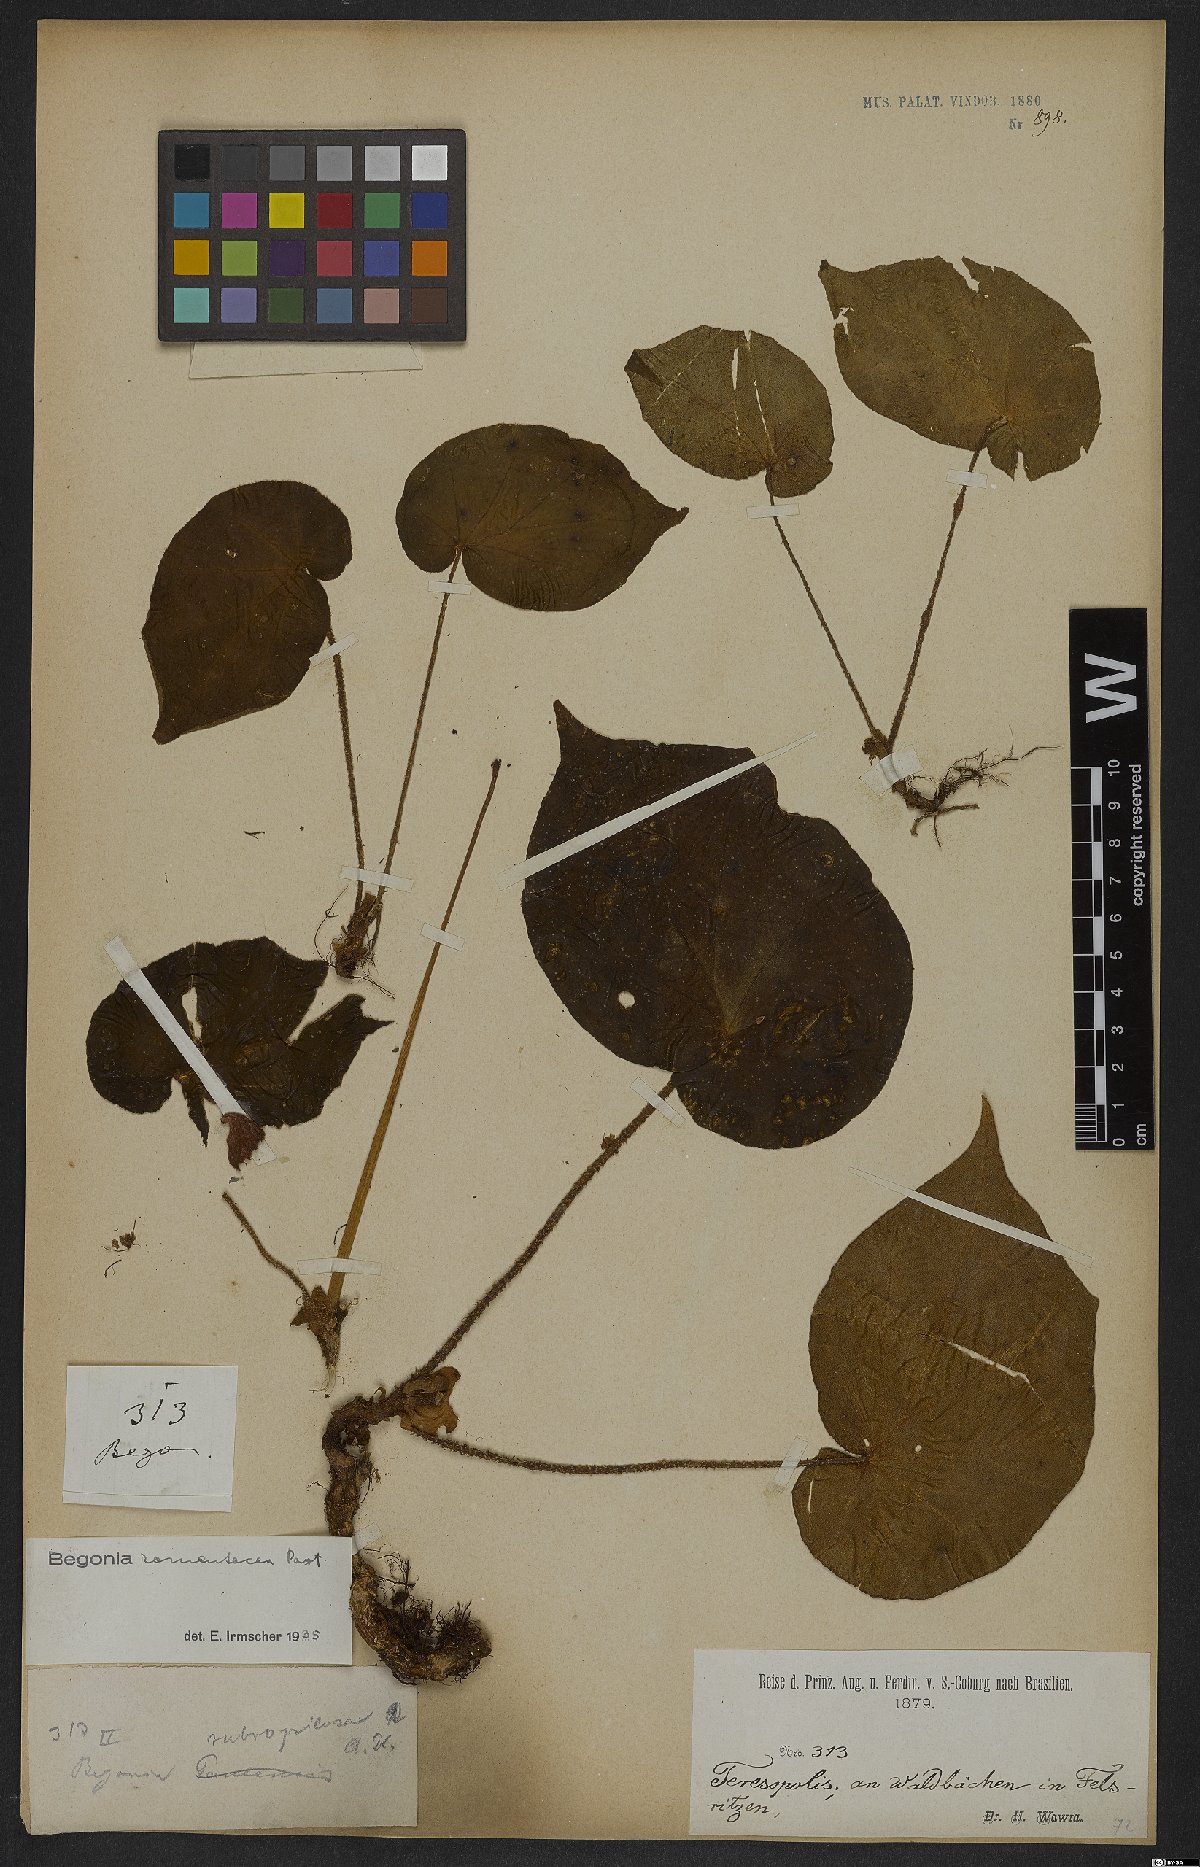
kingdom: Plantae
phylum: Tracheophyta
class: Magnoliopsida
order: Cucurbitales
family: Begoniaceae
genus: Begonia
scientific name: Begonia ramentacea
